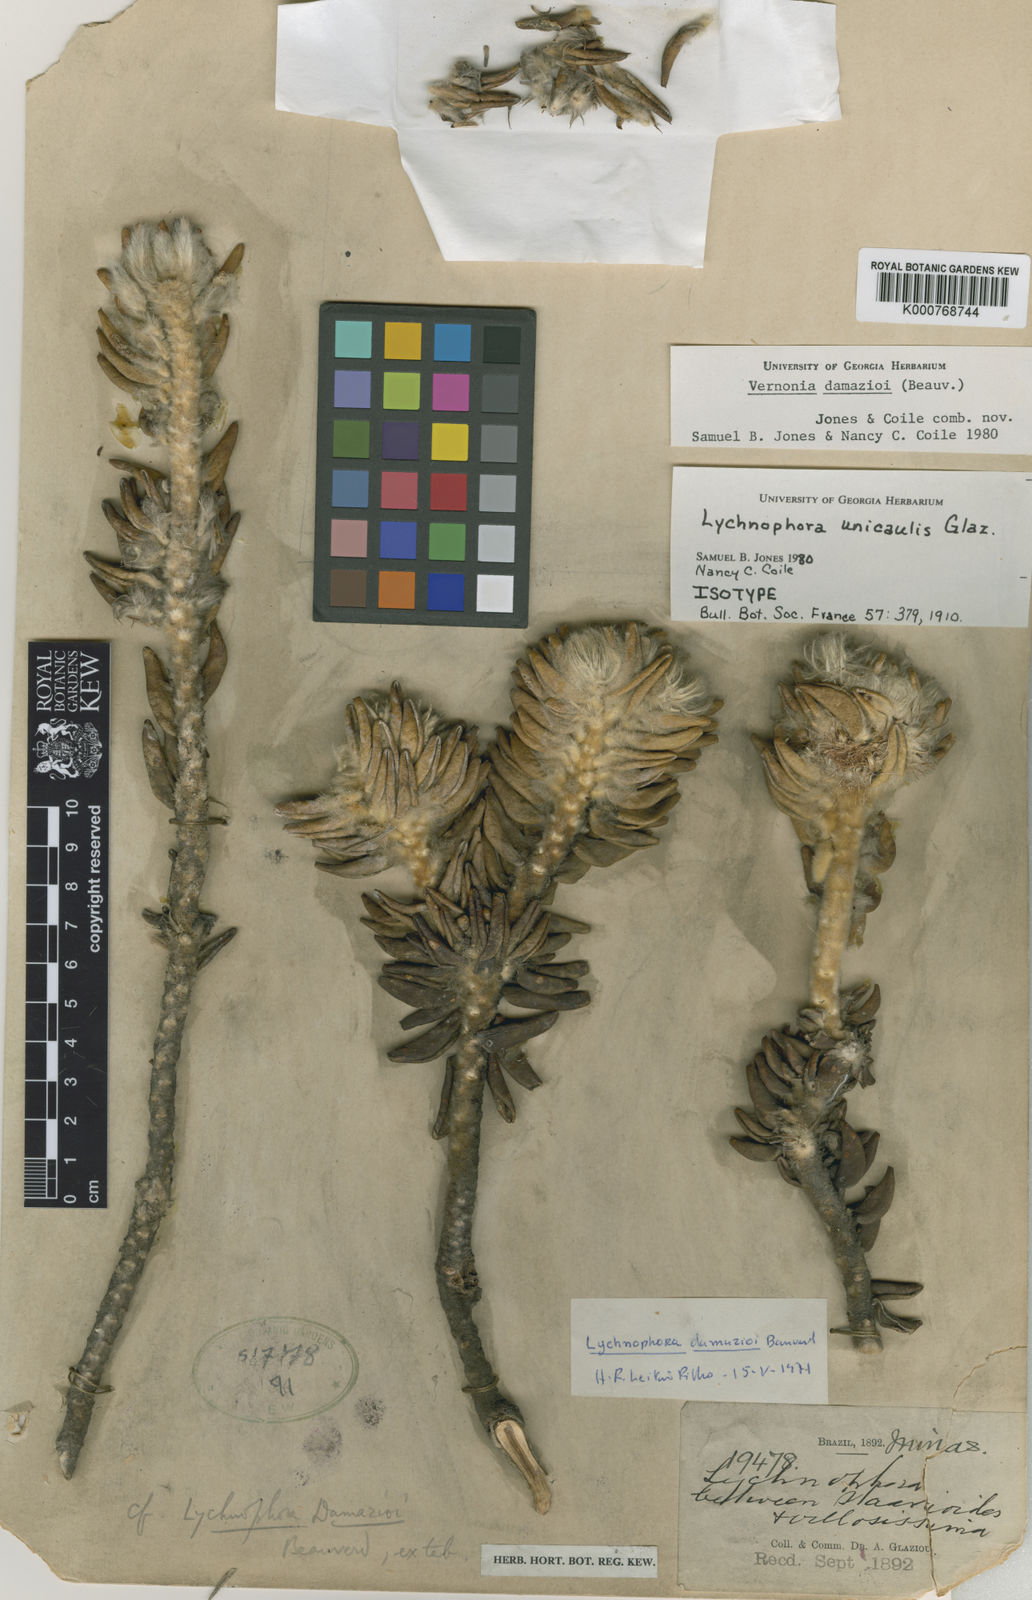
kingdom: Plantae
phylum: Tracheophyta
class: Magnoliopsida
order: Asterales
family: Asteraceae
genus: Lychnophora
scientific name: Lychnophora damazioi
